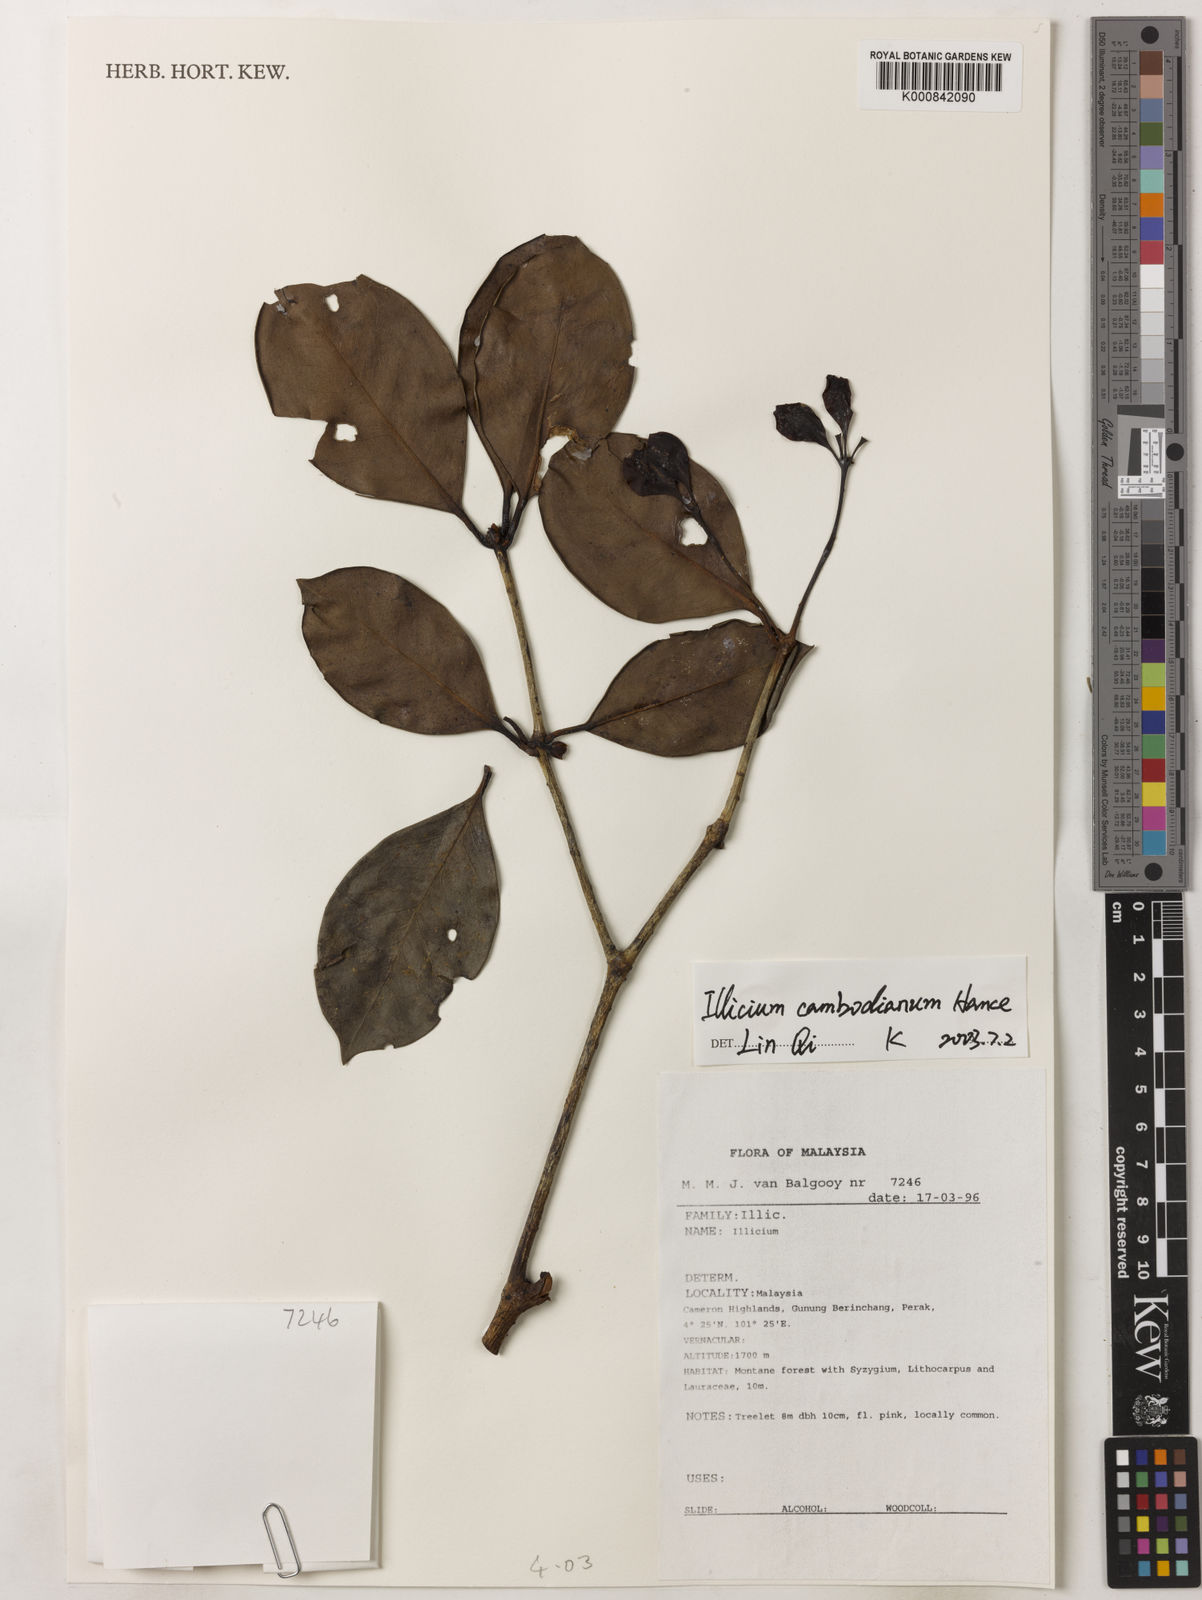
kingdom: Plantae
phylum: Tracheophyta
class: Magnoliopsida
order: Austrobaileyales
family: Schisandraceae
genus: Illicium
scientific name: Illicium griffithii
